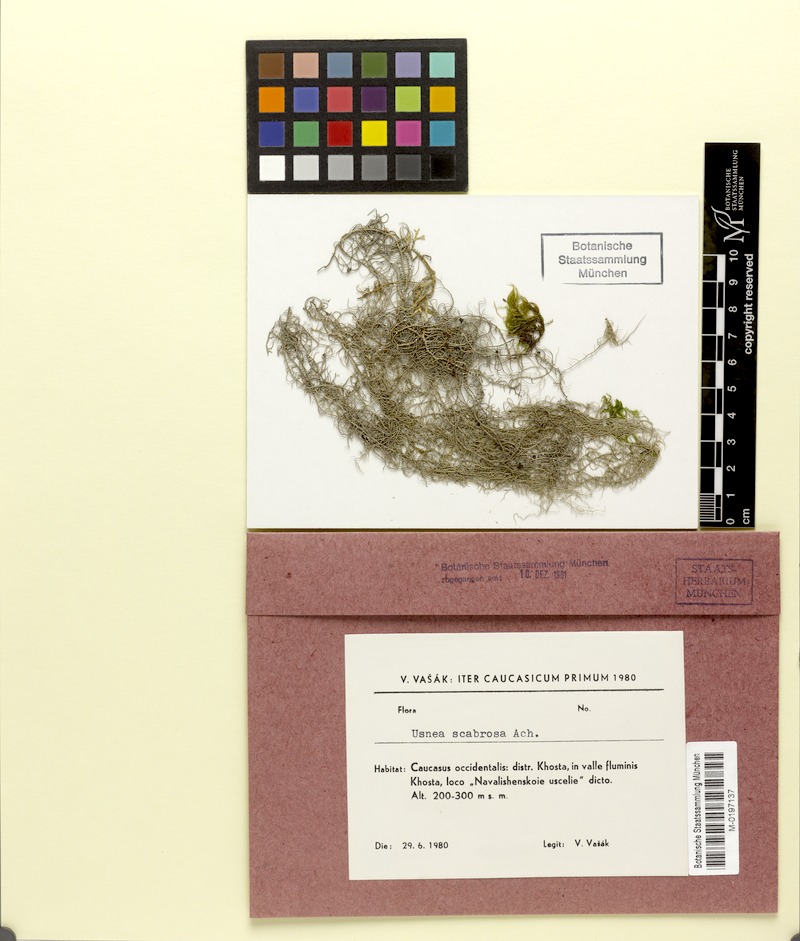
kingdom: Fungi
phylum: Ascomycota
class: Lecanoromycetes
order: Lecanorales
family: Parmeliaceae
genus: Usnea
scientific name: Usnea scabrida
